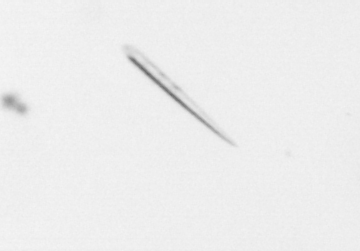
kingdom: Chromista
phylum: Ochrophyta
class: Bacillariophyceae
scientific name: Bacillariophyceae
